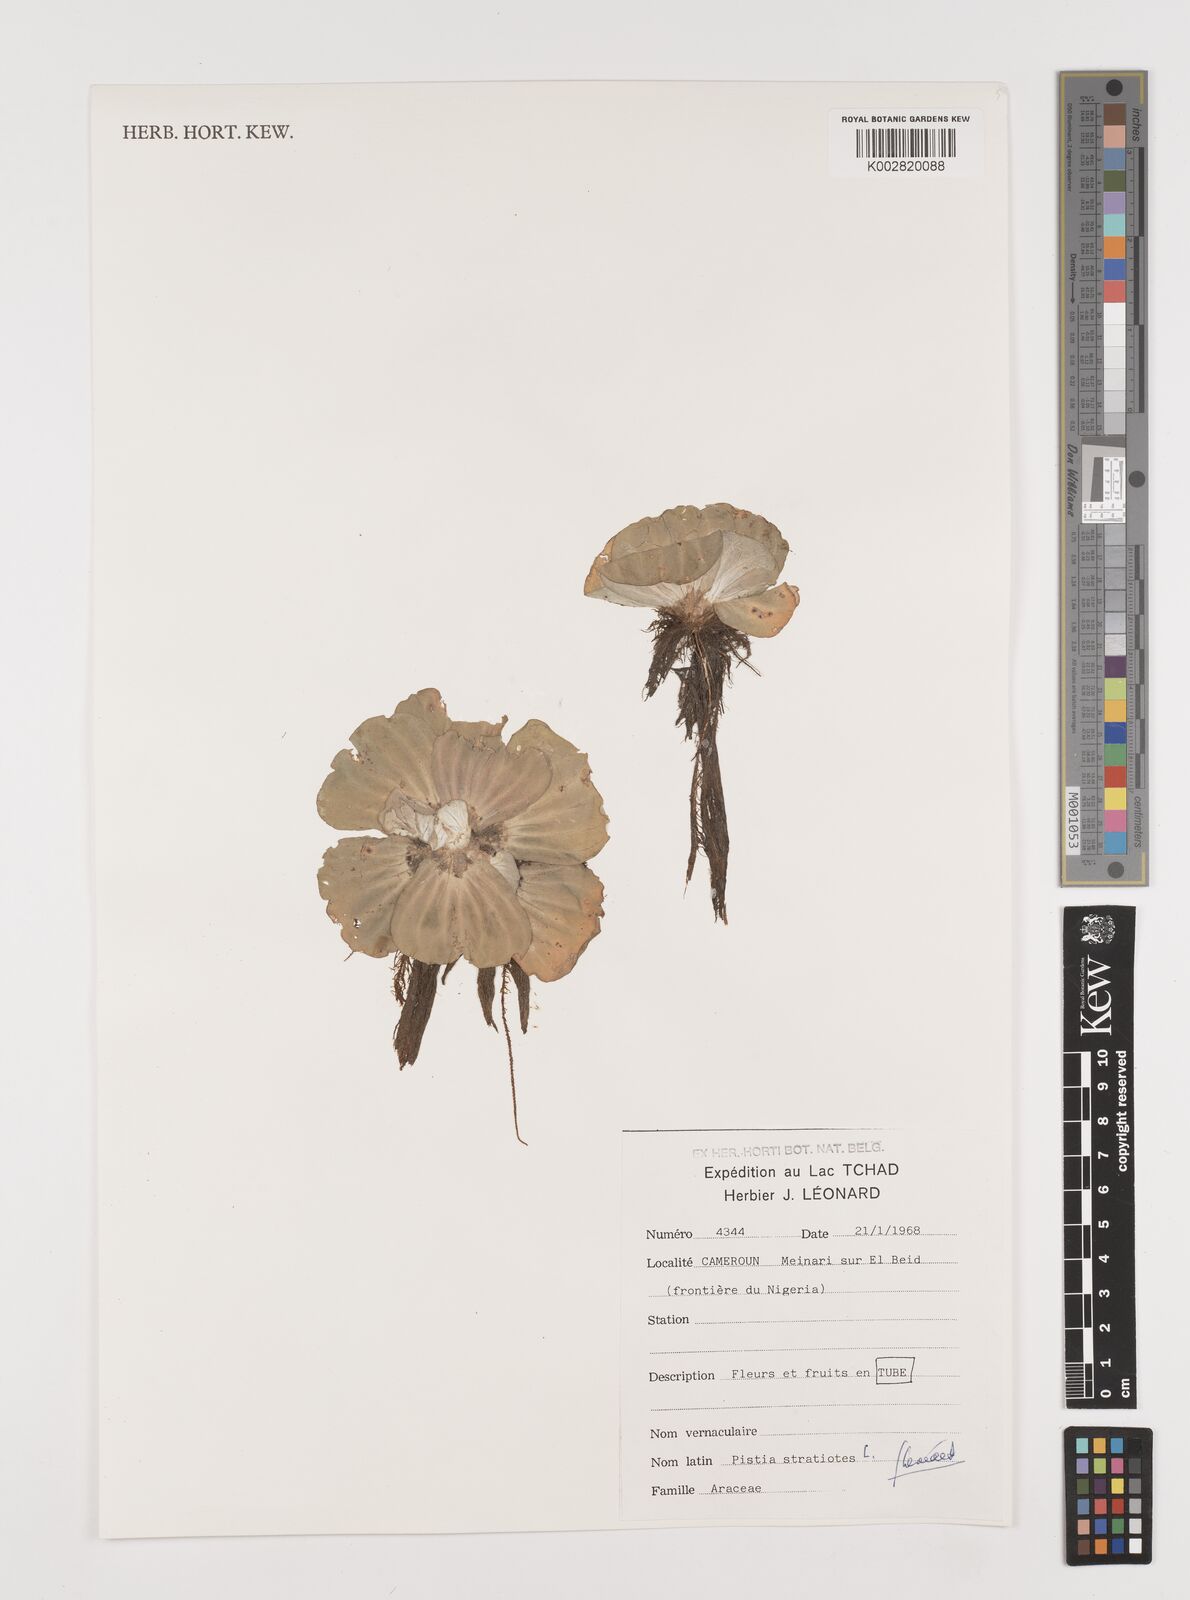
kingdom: Plantae
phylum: Tracheophyta
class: Liliopsida
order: Alismatales
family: Araceae
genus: Pistia
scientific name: Pistia stratiotes
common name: Water lettuce
